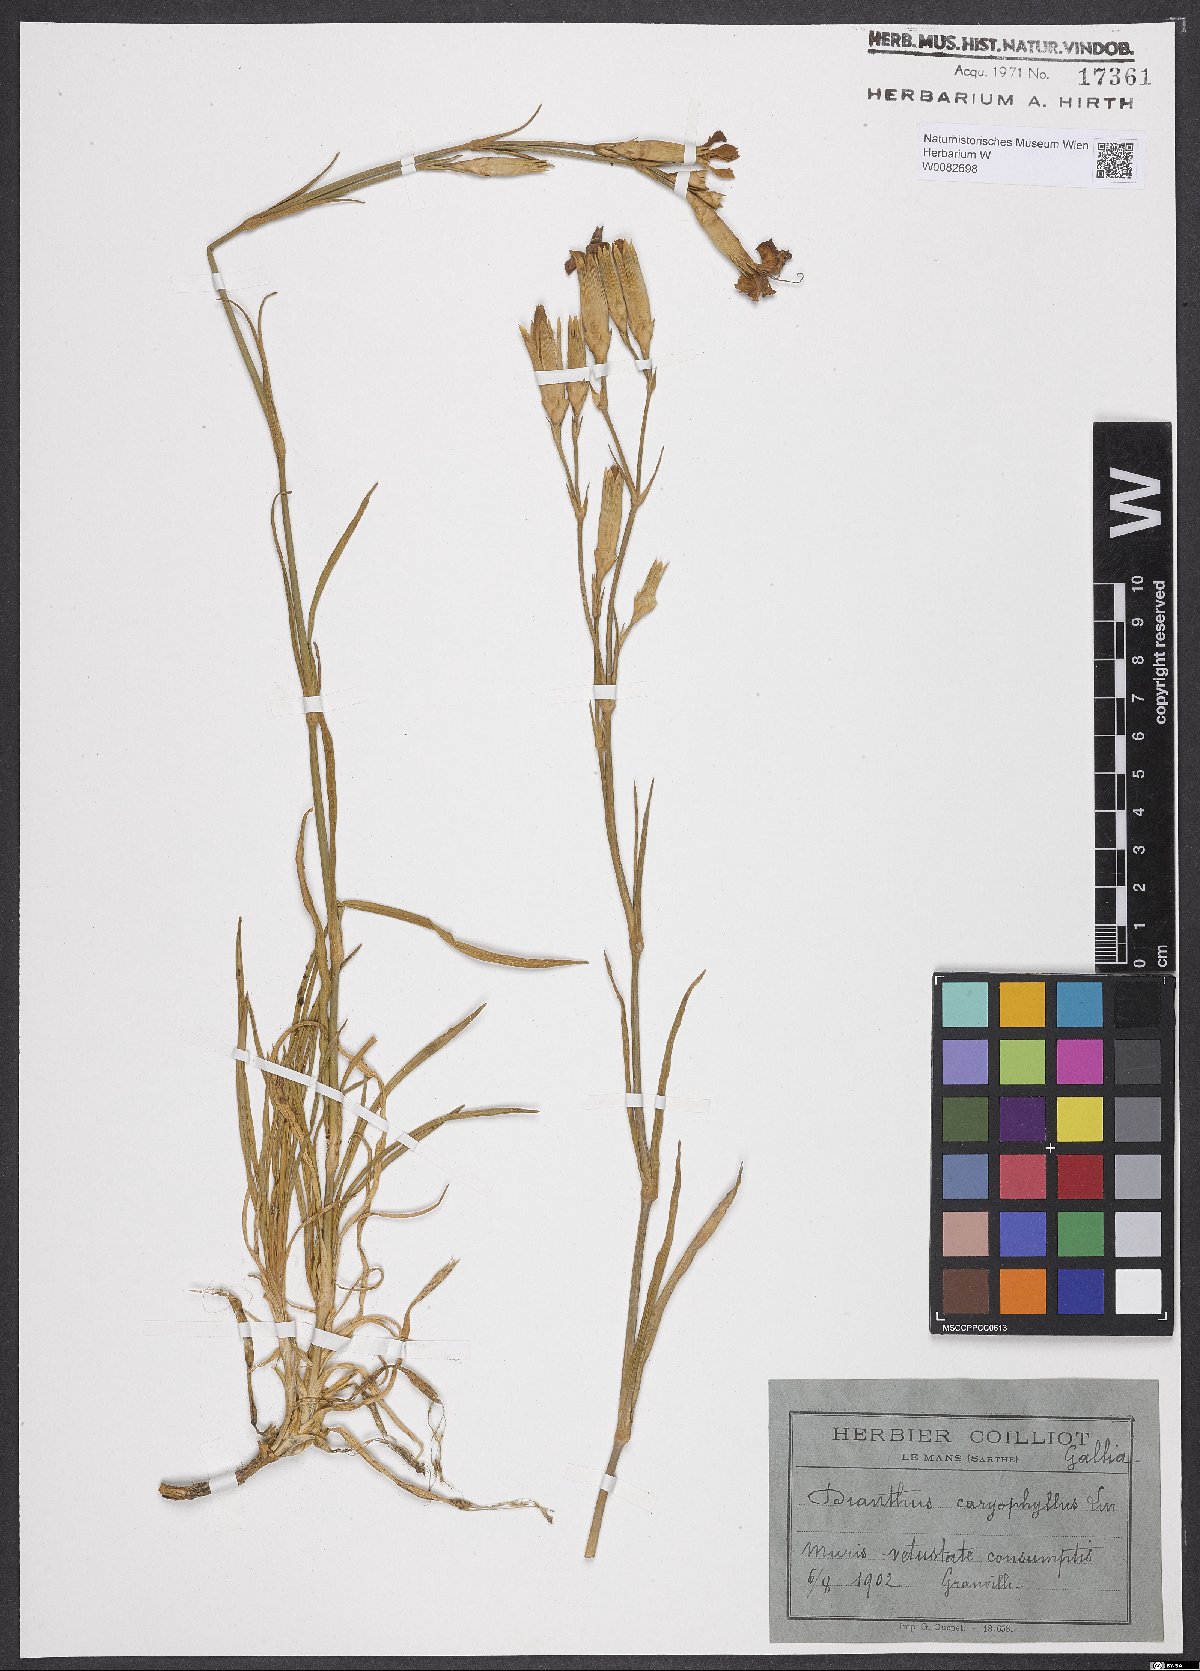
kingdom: Plantae
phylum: Tracheophyta
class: Magnoliopsida
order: Caryophyllales
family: Caryophyllaceae
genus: Dianthus
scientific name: Dianthus caryophyllus
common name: Clove pink
